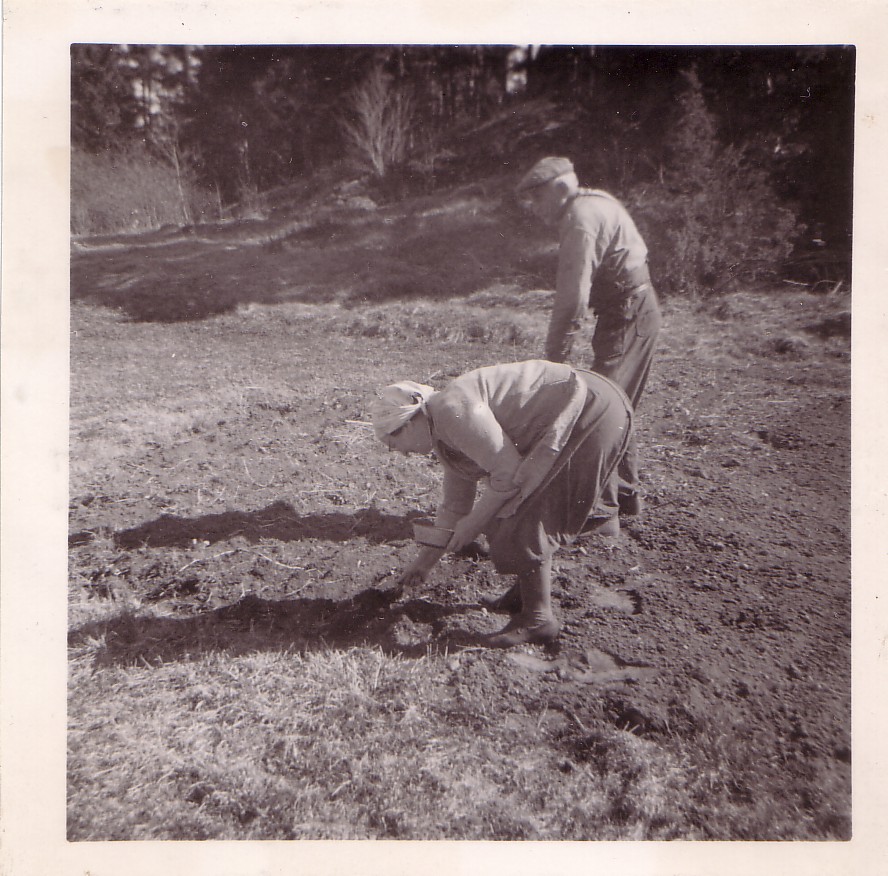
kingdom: Plantae
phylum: Tracheophyta
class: Magnoliopsida
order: Fabales
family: Fabaceae
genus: Lathyrus
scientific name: Lathyrus oleraceus
